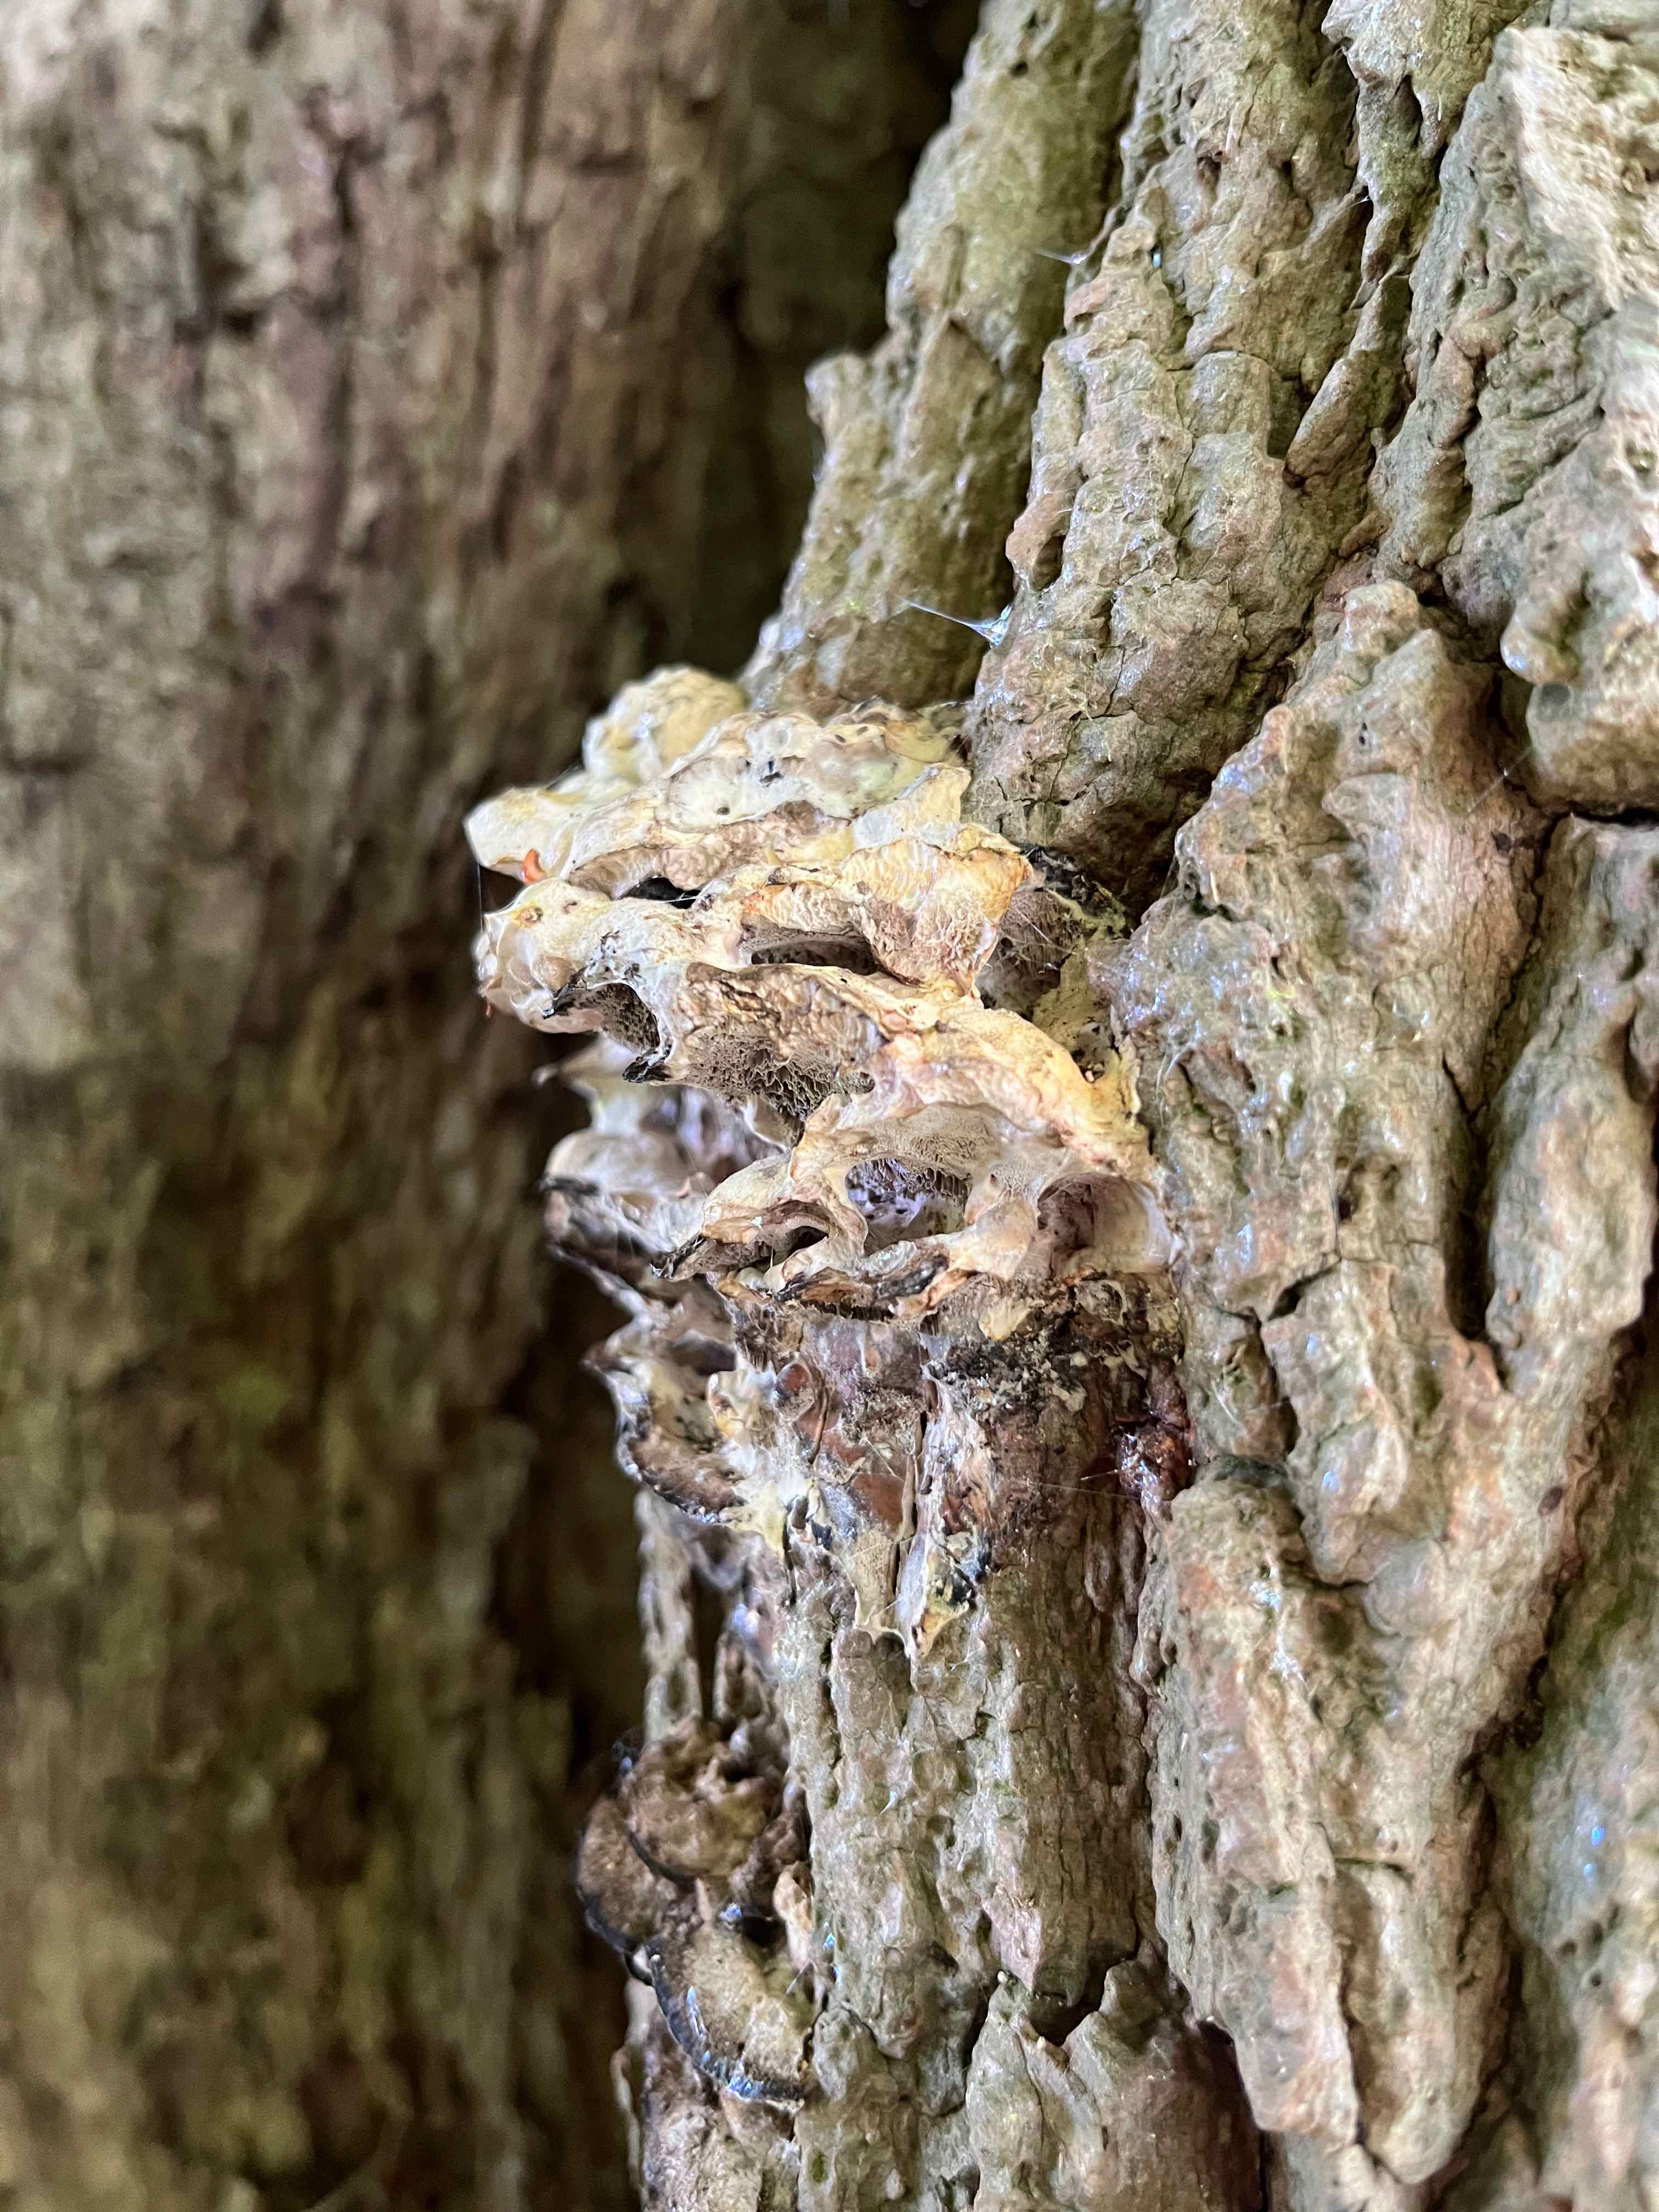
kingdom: Fungi
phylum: Basidiomycota
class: Agaricomycetes
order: Polyporales
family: Phanerochaetaceae
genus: Bjerkandera
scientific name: Bjerkandera adusta
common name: sveden sodporesvamp
